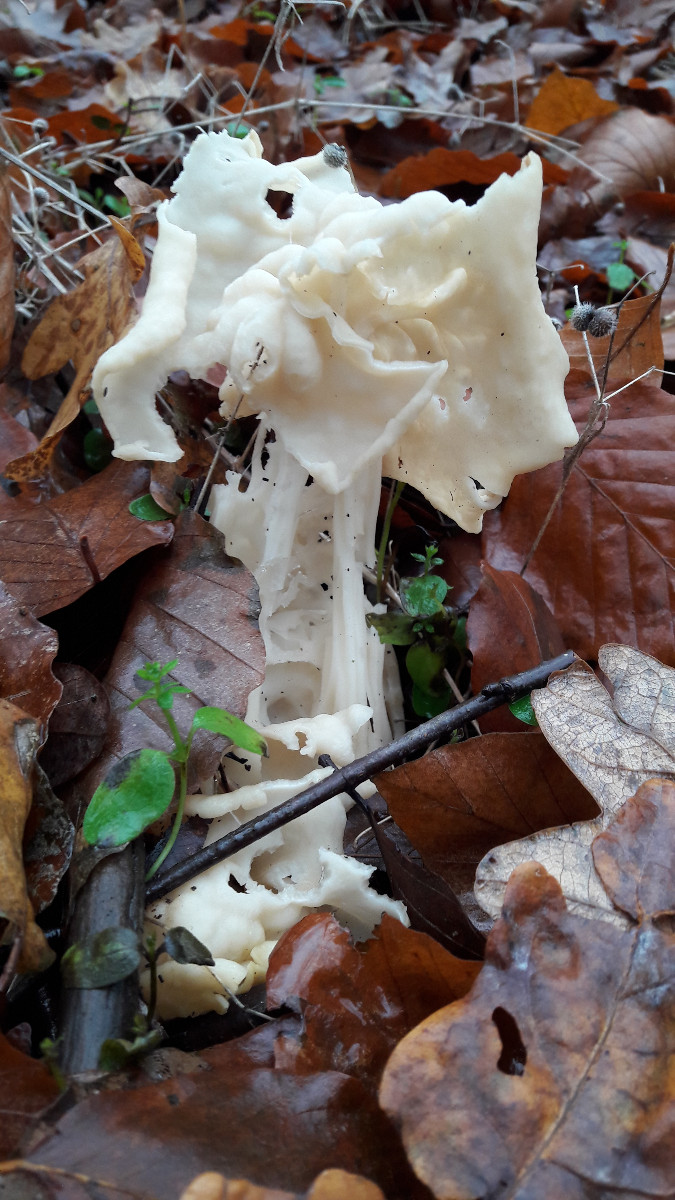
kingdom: Fungi
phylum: Ascomycota
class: Pezizomycetes
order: Pezizales
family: Helvellaceae
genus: Helvella
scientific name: Helvella crispa
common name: kruset foldhat
